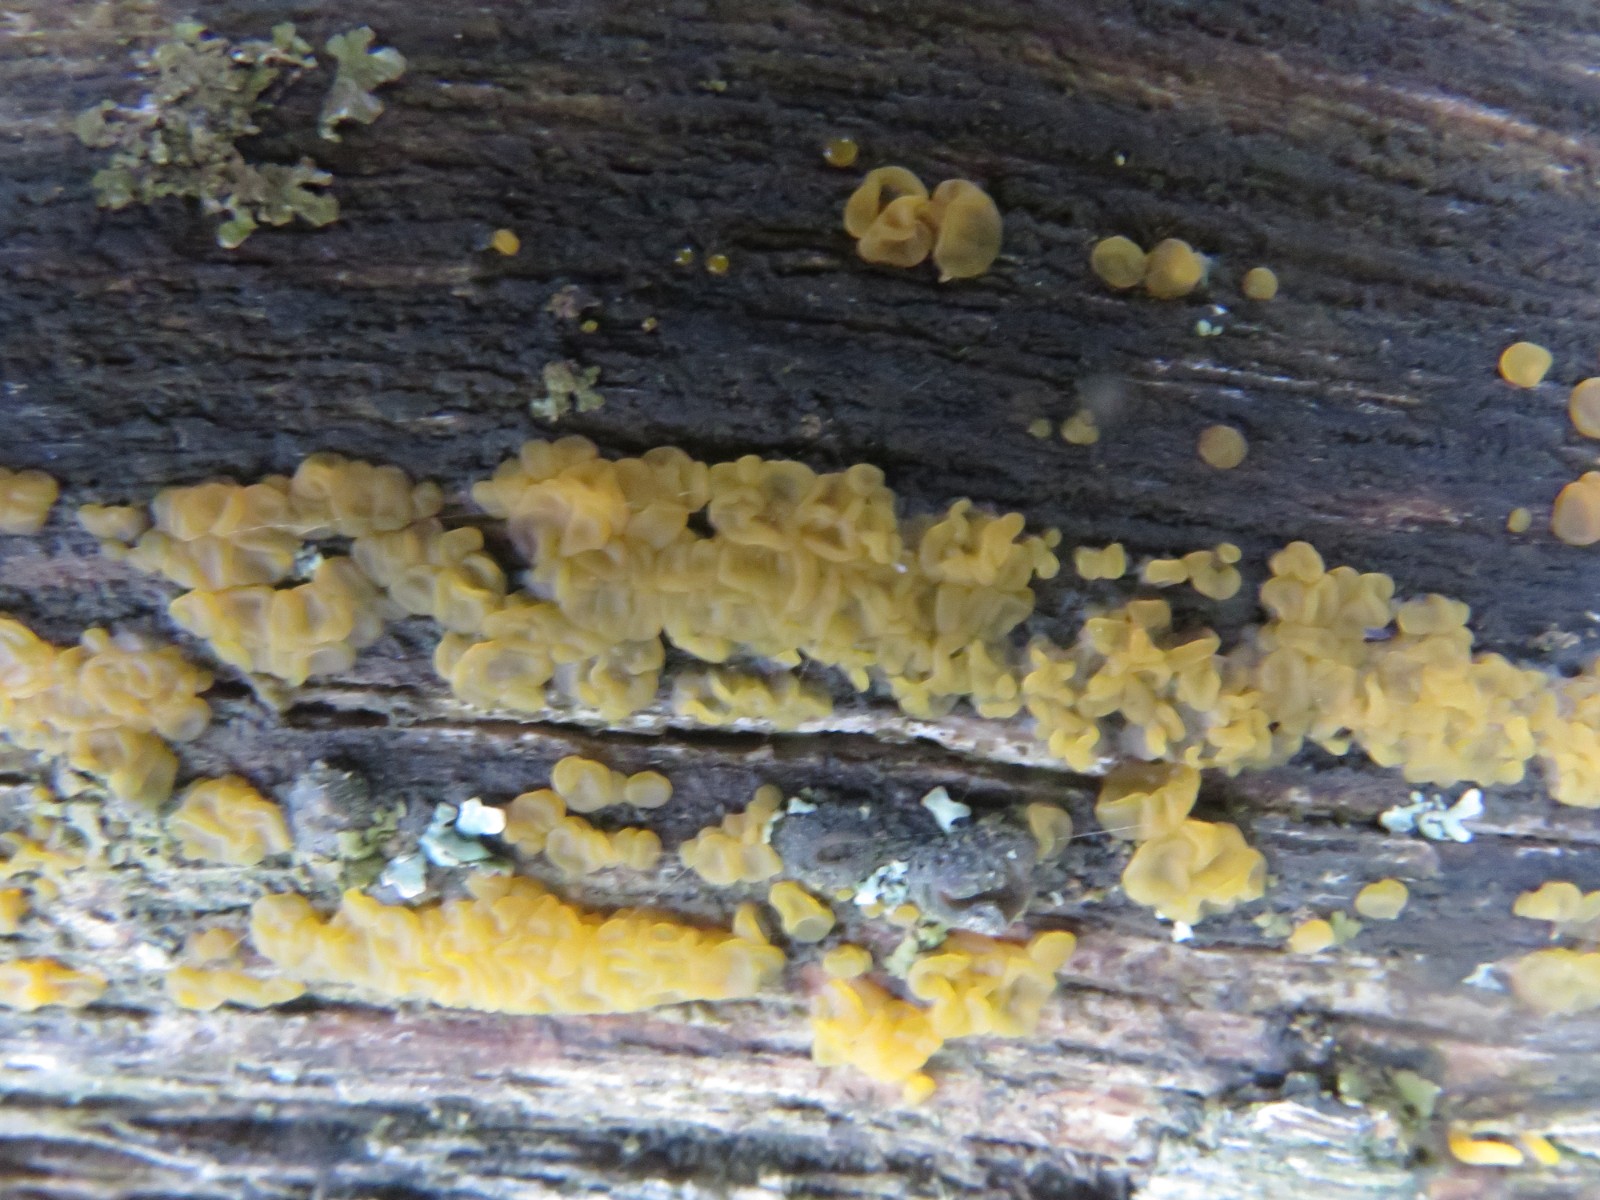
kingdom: Fungi
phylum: Basidiomycota
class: Dacrymycetes
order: Dacrymycetales
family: Dacrymycetaceae
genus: Dacrymyces
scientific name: Dacrymyces lacrymalis
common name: rynket tåresvamp
